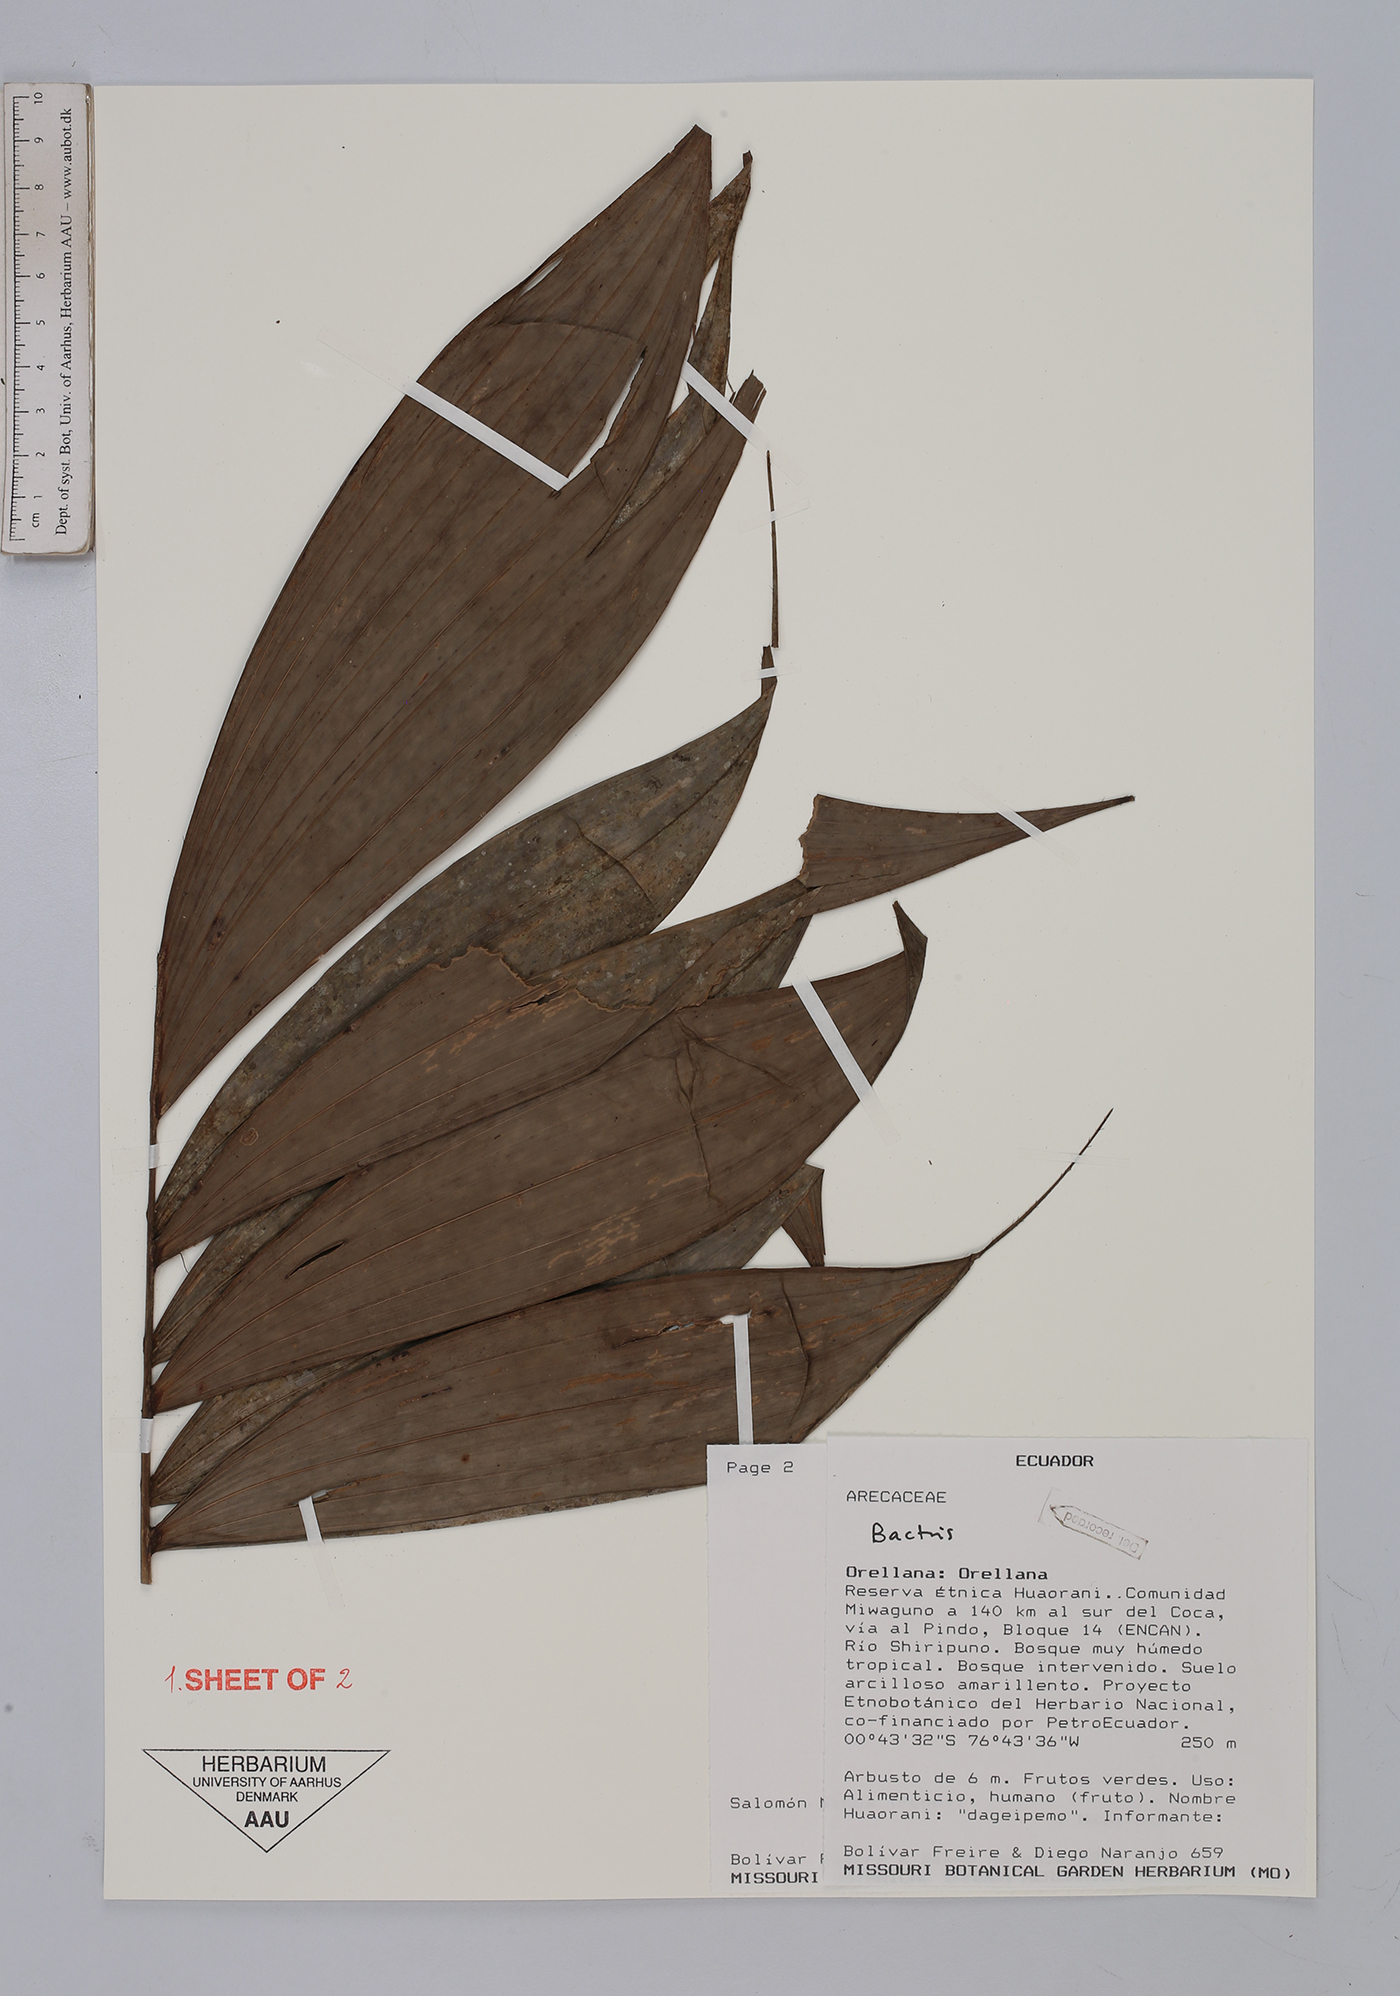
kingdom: Plantae
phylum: Tracheophyta
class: Liliopsida
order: Arecales
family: Arecaceae
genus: Bactris
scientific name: Bactris
